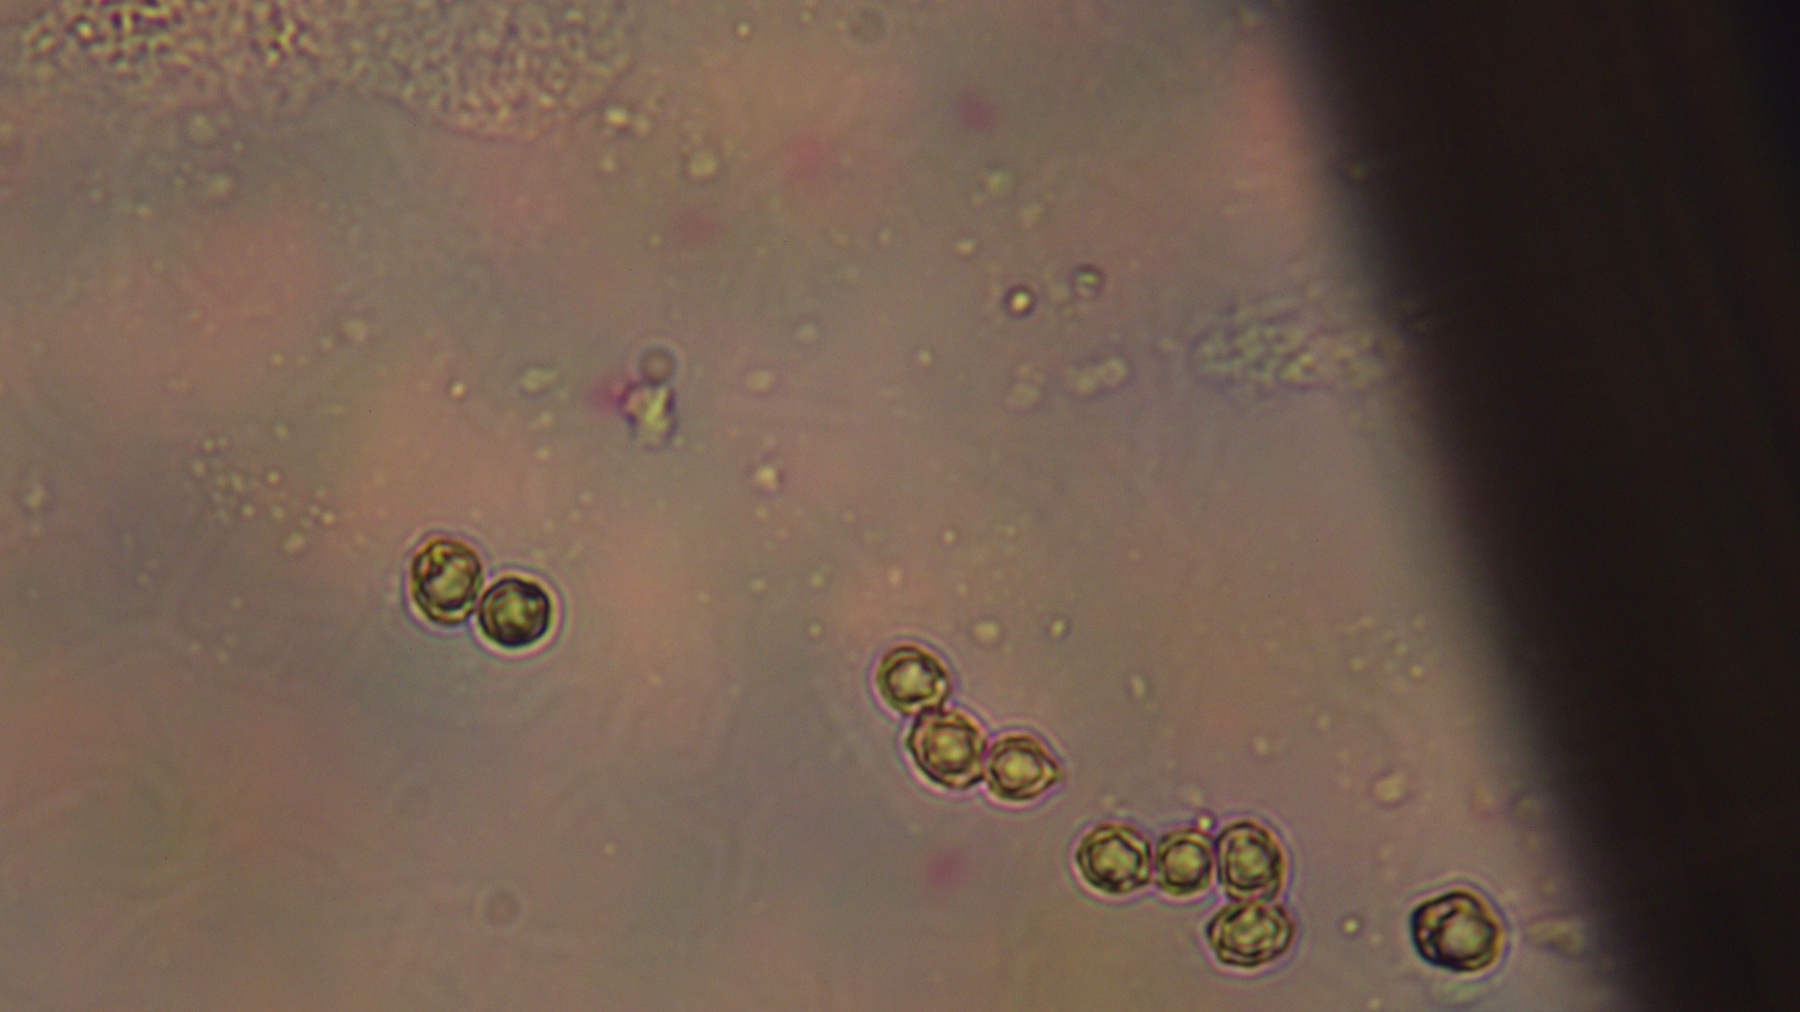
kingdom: Fungi
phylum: Basidiomycota
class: Agaricomycetes
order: Russulales
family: Russulaceae
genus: Lactarius
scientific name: Lactarius scoticus
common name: tørve-mælkehat
